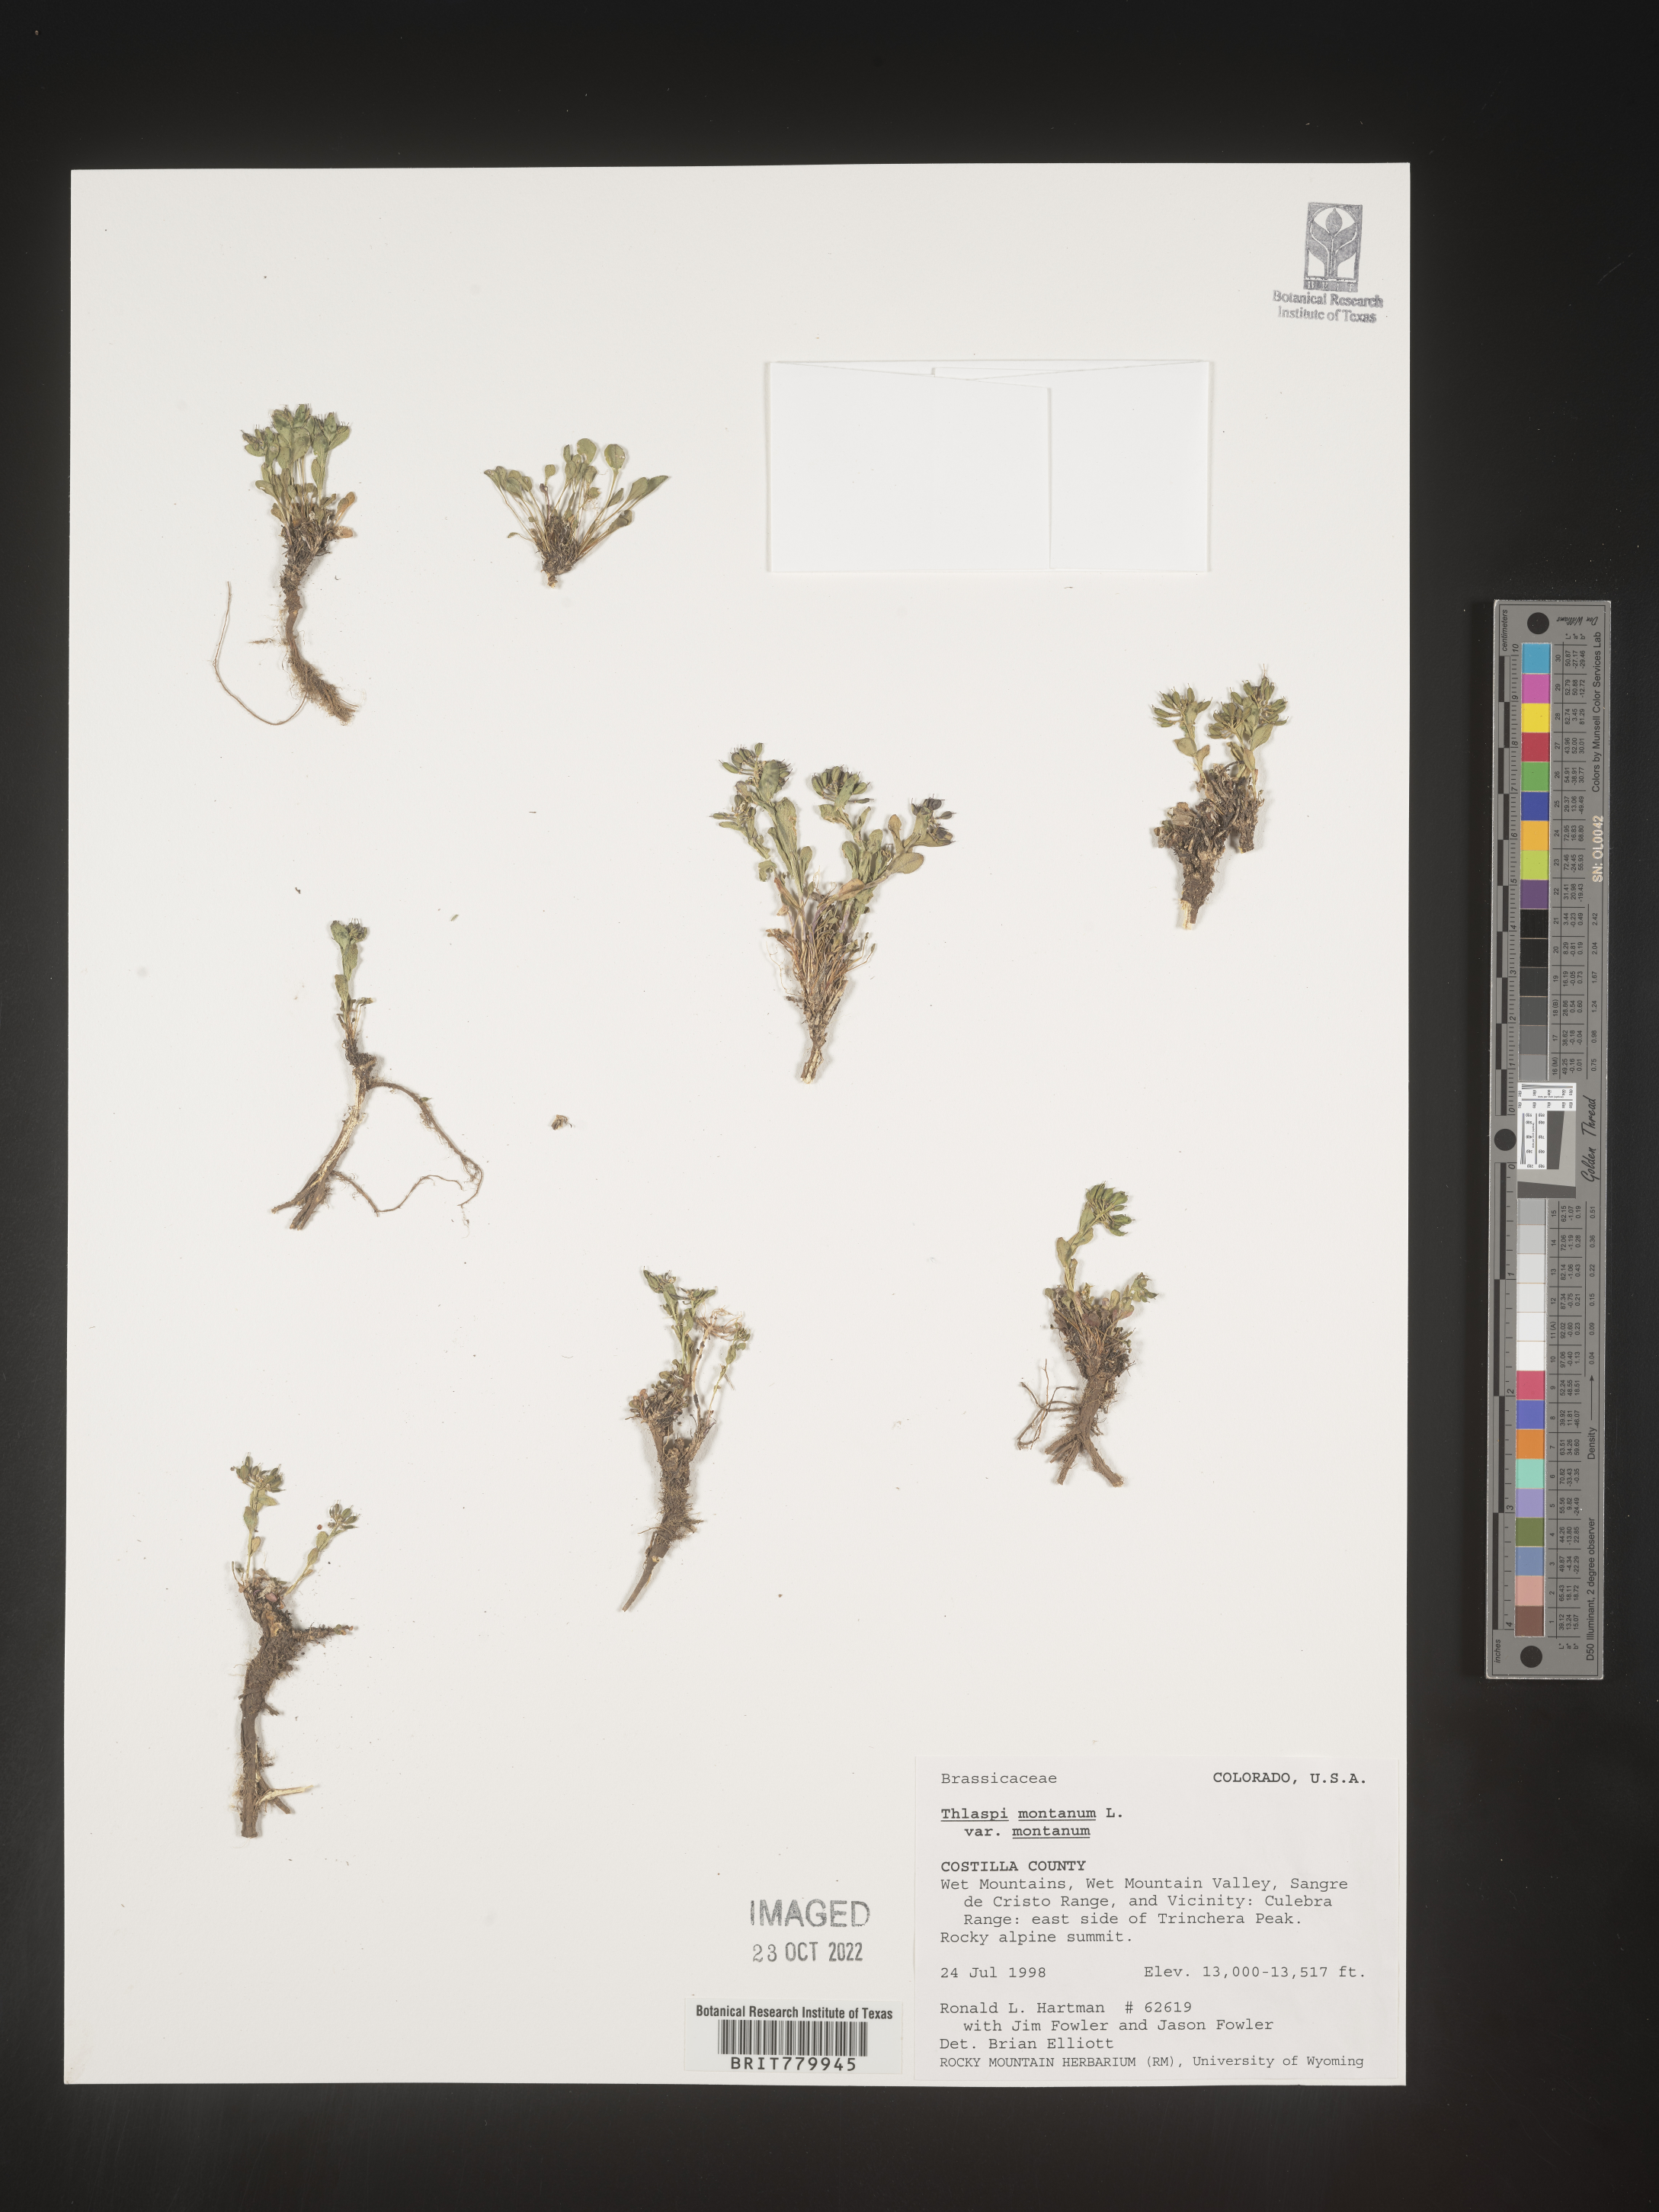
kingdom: Plantae
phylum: Tracheophyta
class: Magnoliopsida
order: Brassicales
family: Brassicaceae
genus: Thlaspi
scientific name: Thlaspi
